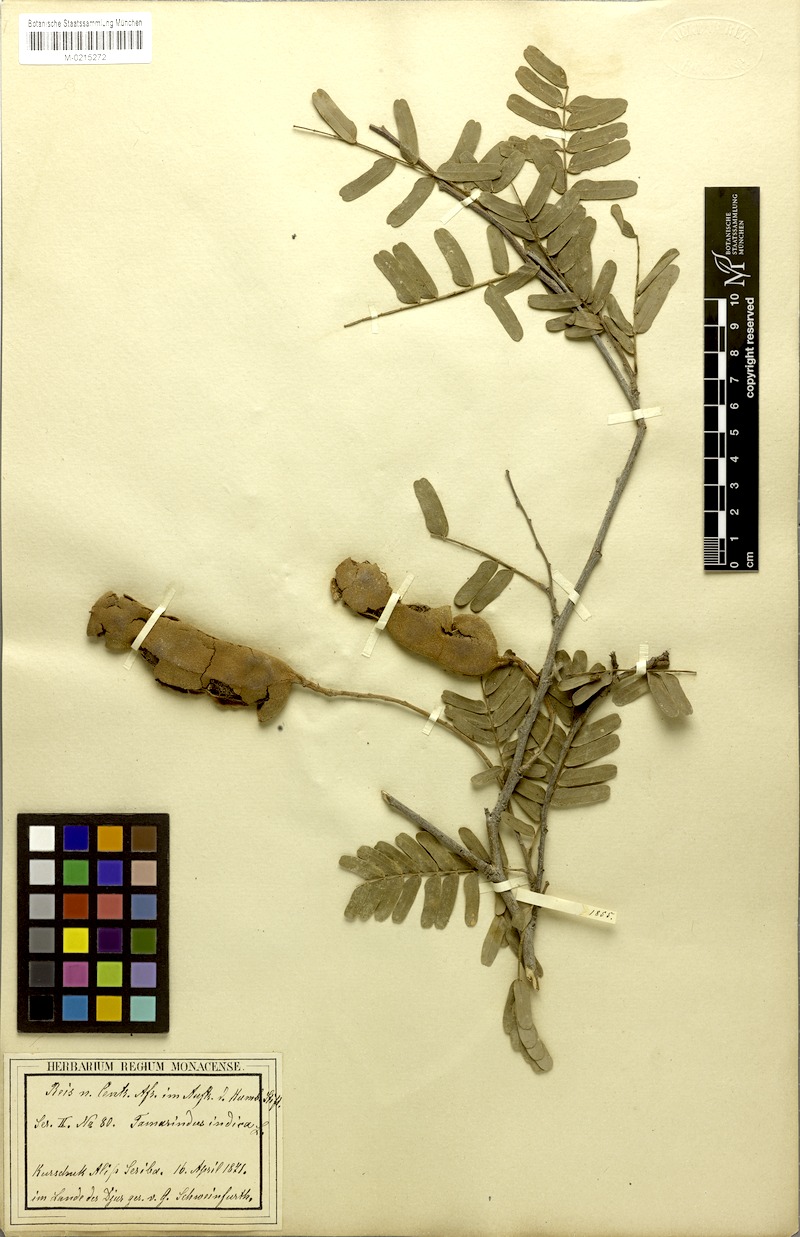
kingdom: Plantae
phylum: Tracheophyta
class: Magnoliopsida
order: Fabales
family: Fabaceae
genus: Tamarindus
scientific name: Tamarindus indica
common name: Tamarind
